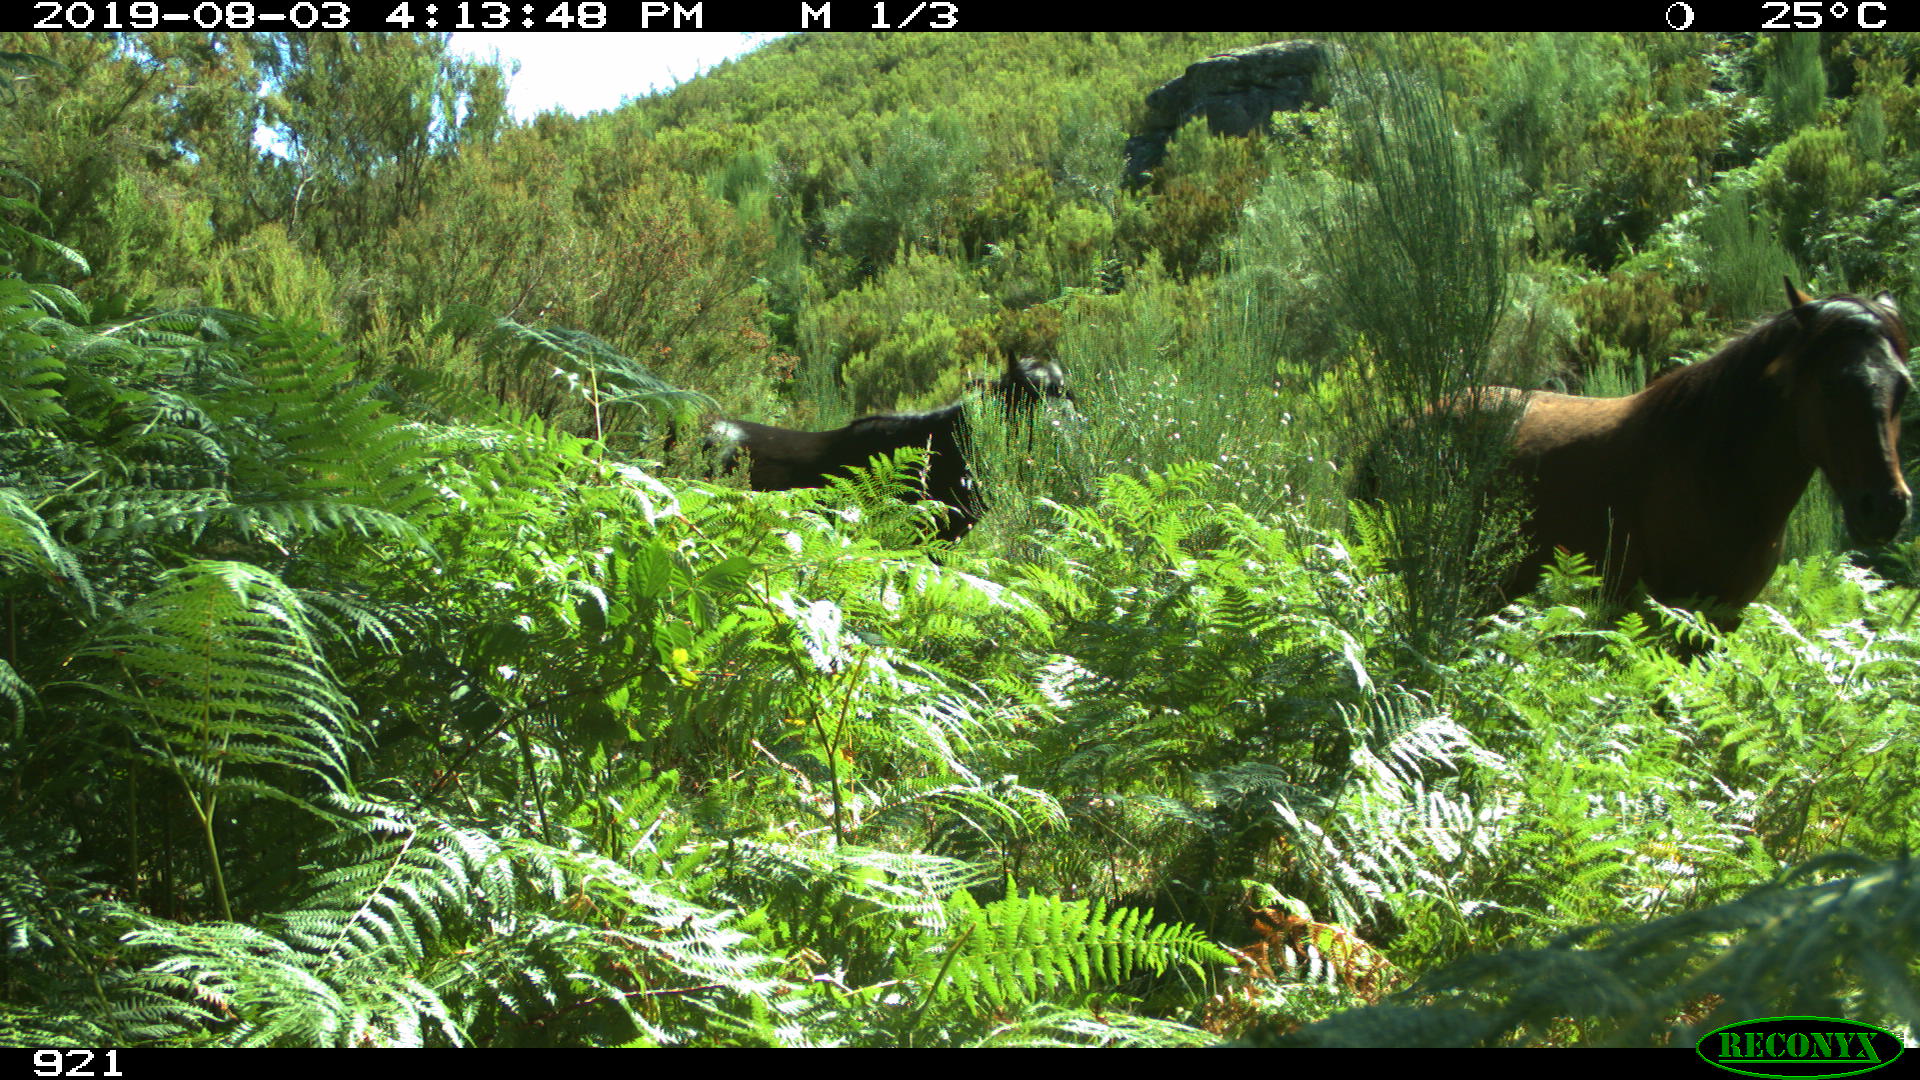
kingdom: Animalia
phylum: Chordata
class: Mammalia
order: Perissodactyla
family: Equidae
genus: Equus
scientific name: Equus caballus
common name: Horse
